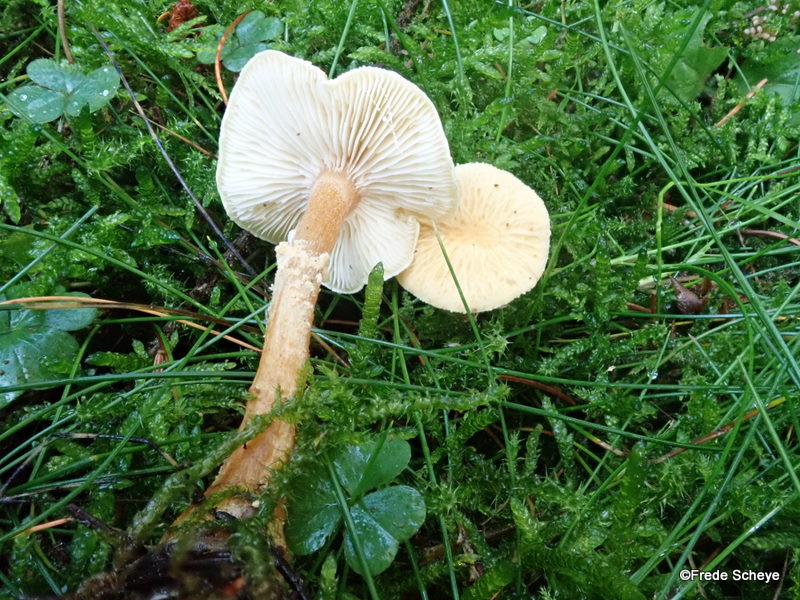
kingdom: Fungi
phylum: Basidiomycota
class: Agaricomycetes
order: Agaricales
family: Tricholomataceae
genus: Cystoderma
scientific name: Cystoderma amianthinum
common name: okkergul grynhat
